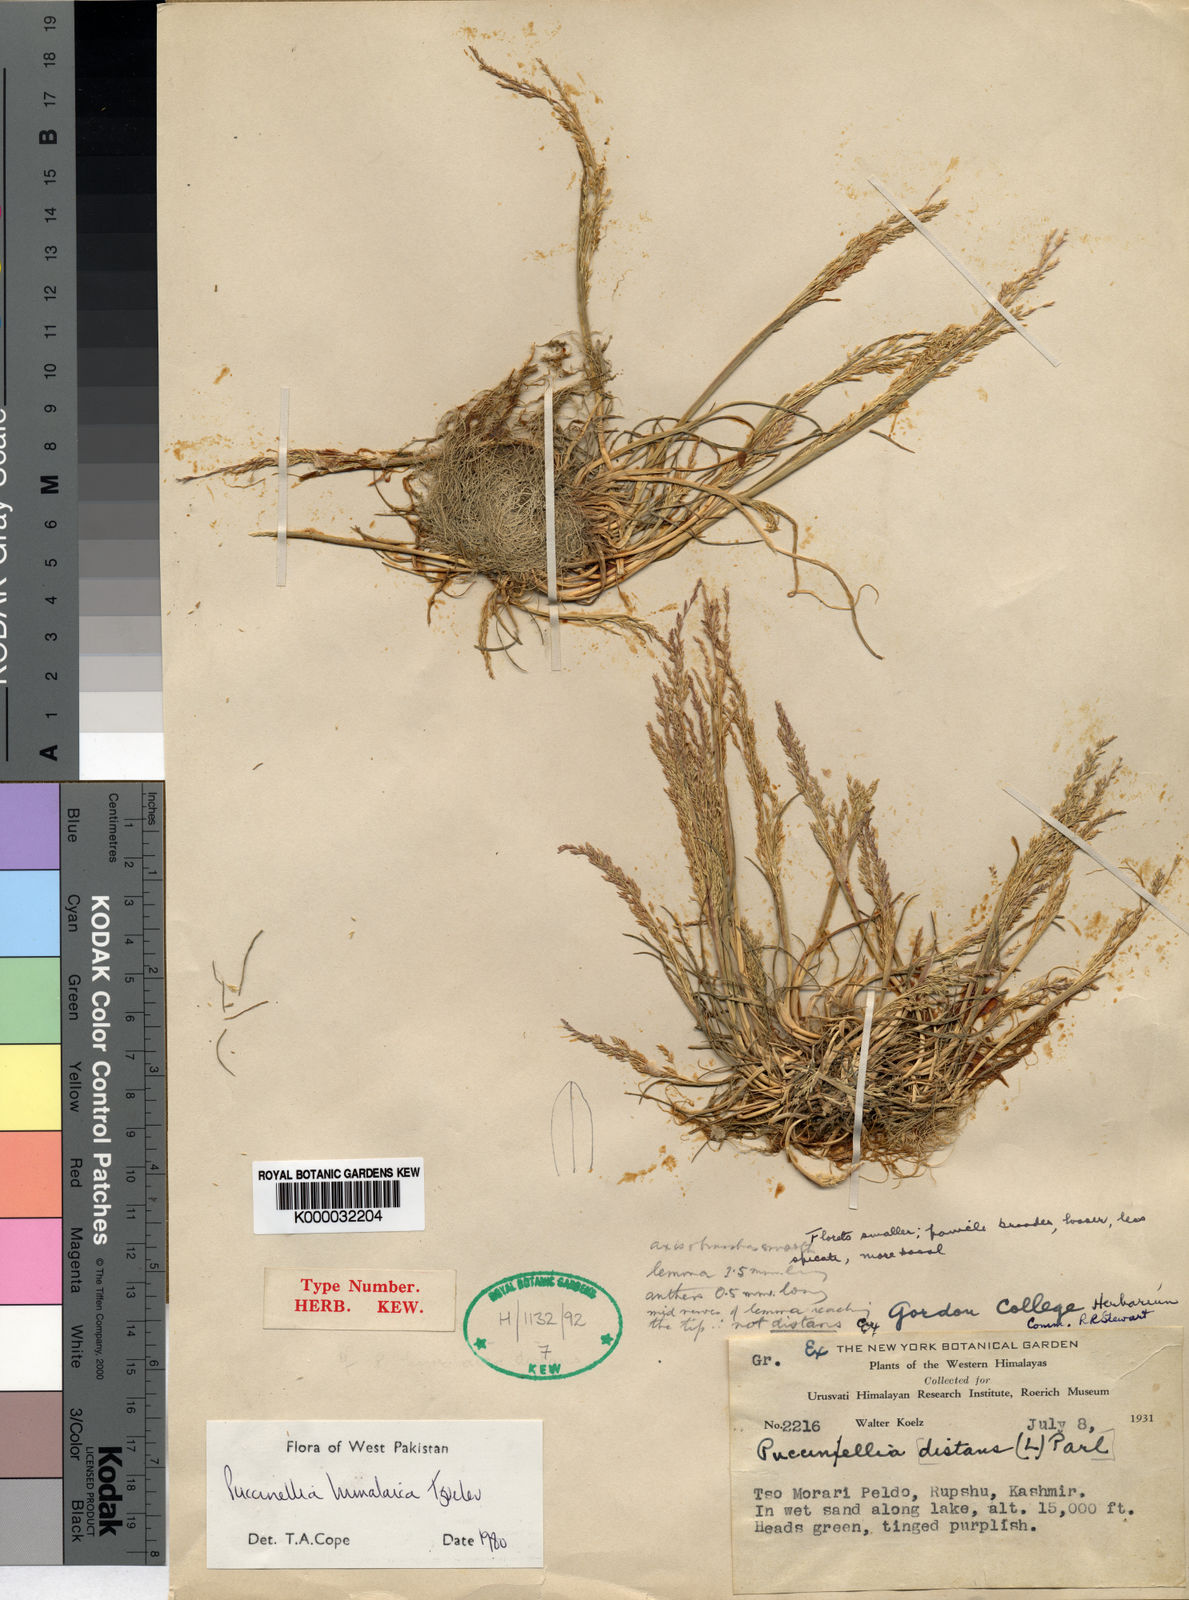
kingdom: Plantae
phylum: Tracheophyta
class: Liliopsida
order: Poales
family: Poaceae
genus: Puccinellia
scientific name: Puccinellia himalaica
